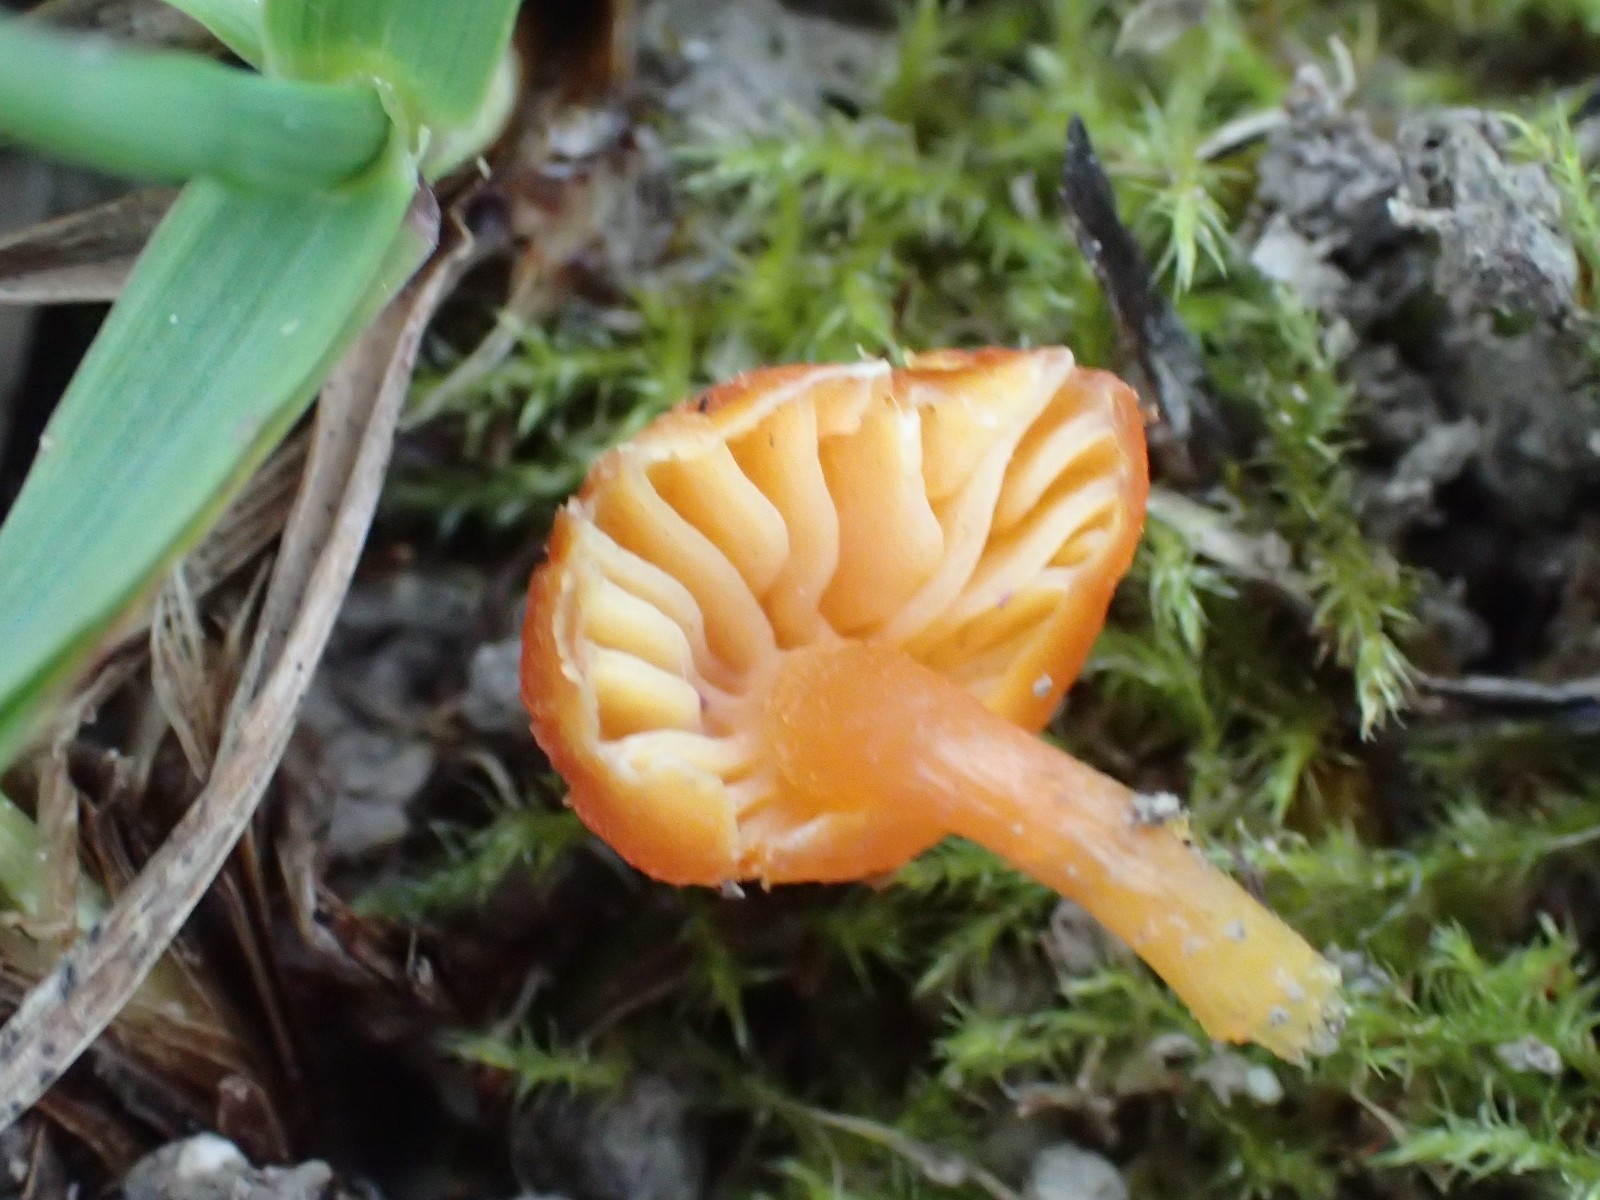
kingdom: Fungi
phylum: Basidiomycota
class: Agaricomycetes
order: Agaricales
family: Hygrophoraceae
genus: Hygrocybe
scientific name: Hygrocybe calciphila
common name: kalk-vokshat
